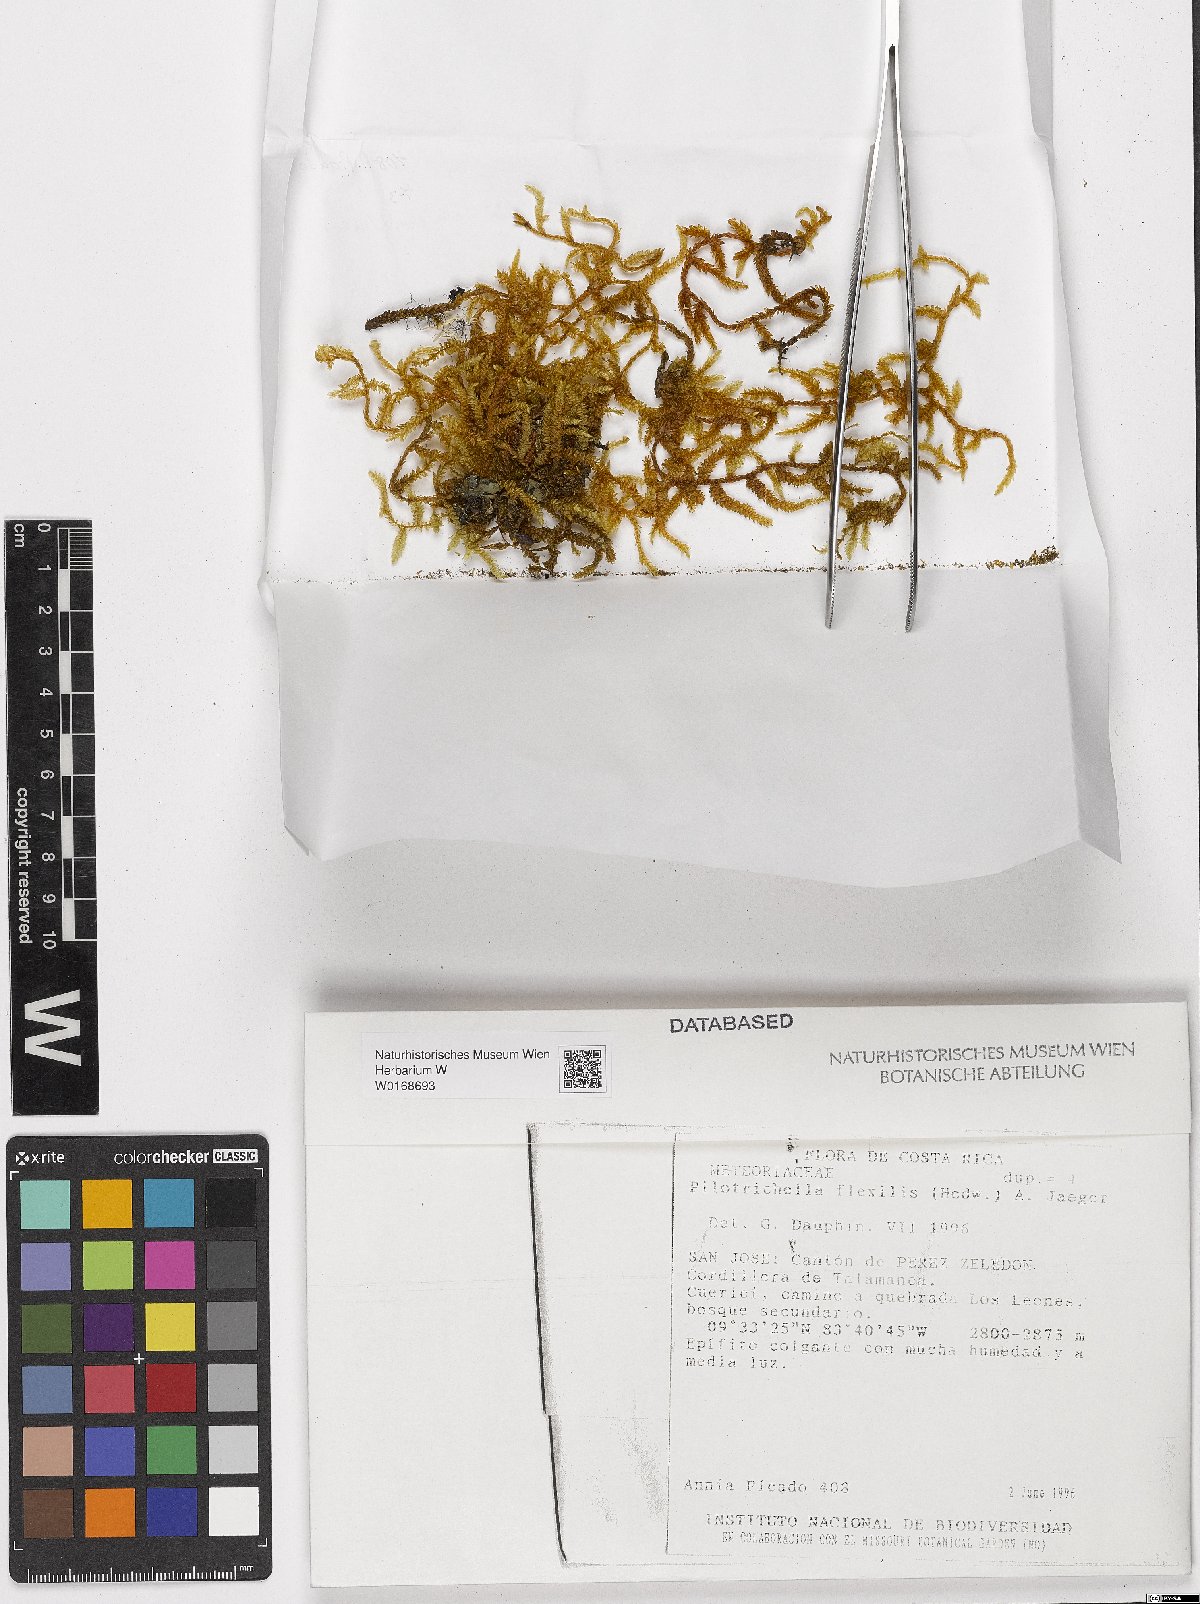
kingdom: Plantae
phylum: Bryophyta
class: Bryopsida
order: Hypnales
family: Lembophyllaceae
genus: Pilotrichella
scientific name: Pilotrichella flexilis
